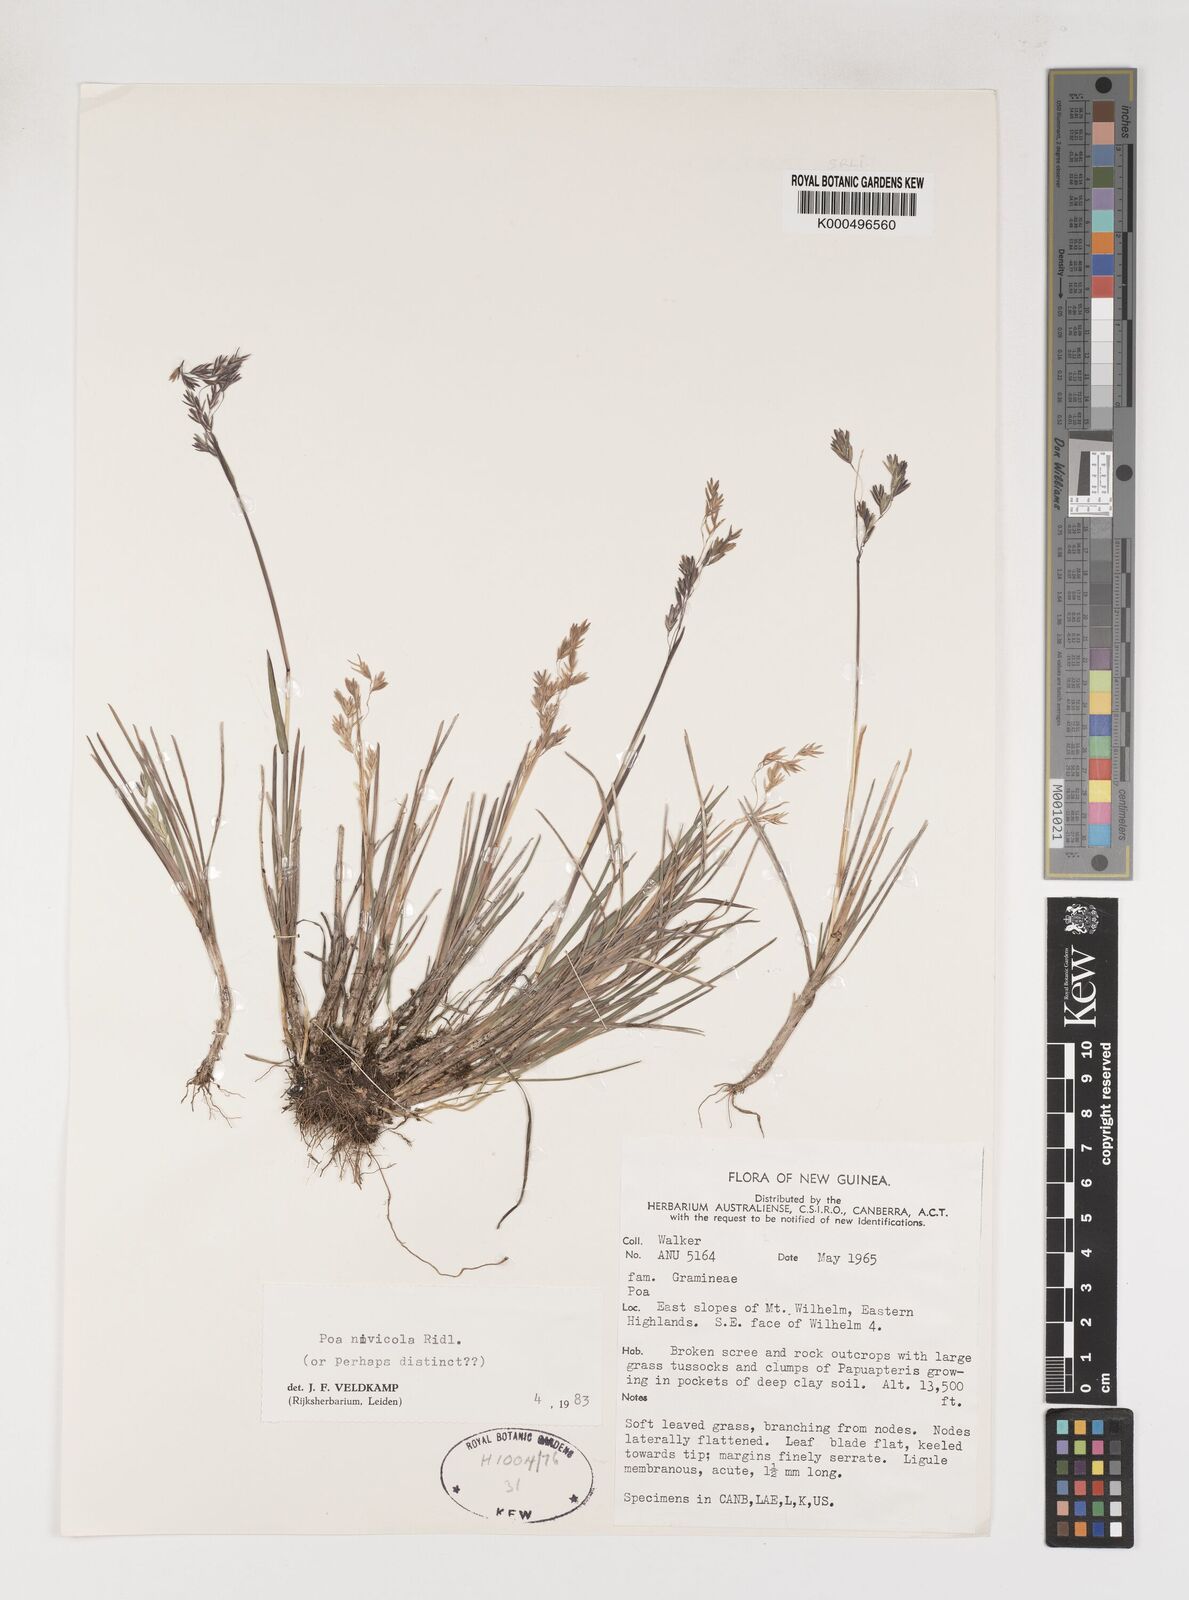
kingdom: Plantae
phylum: Tracheophyta
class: Liliopsida
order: Poales
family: Poaceae
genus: Poa
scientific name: Poa
